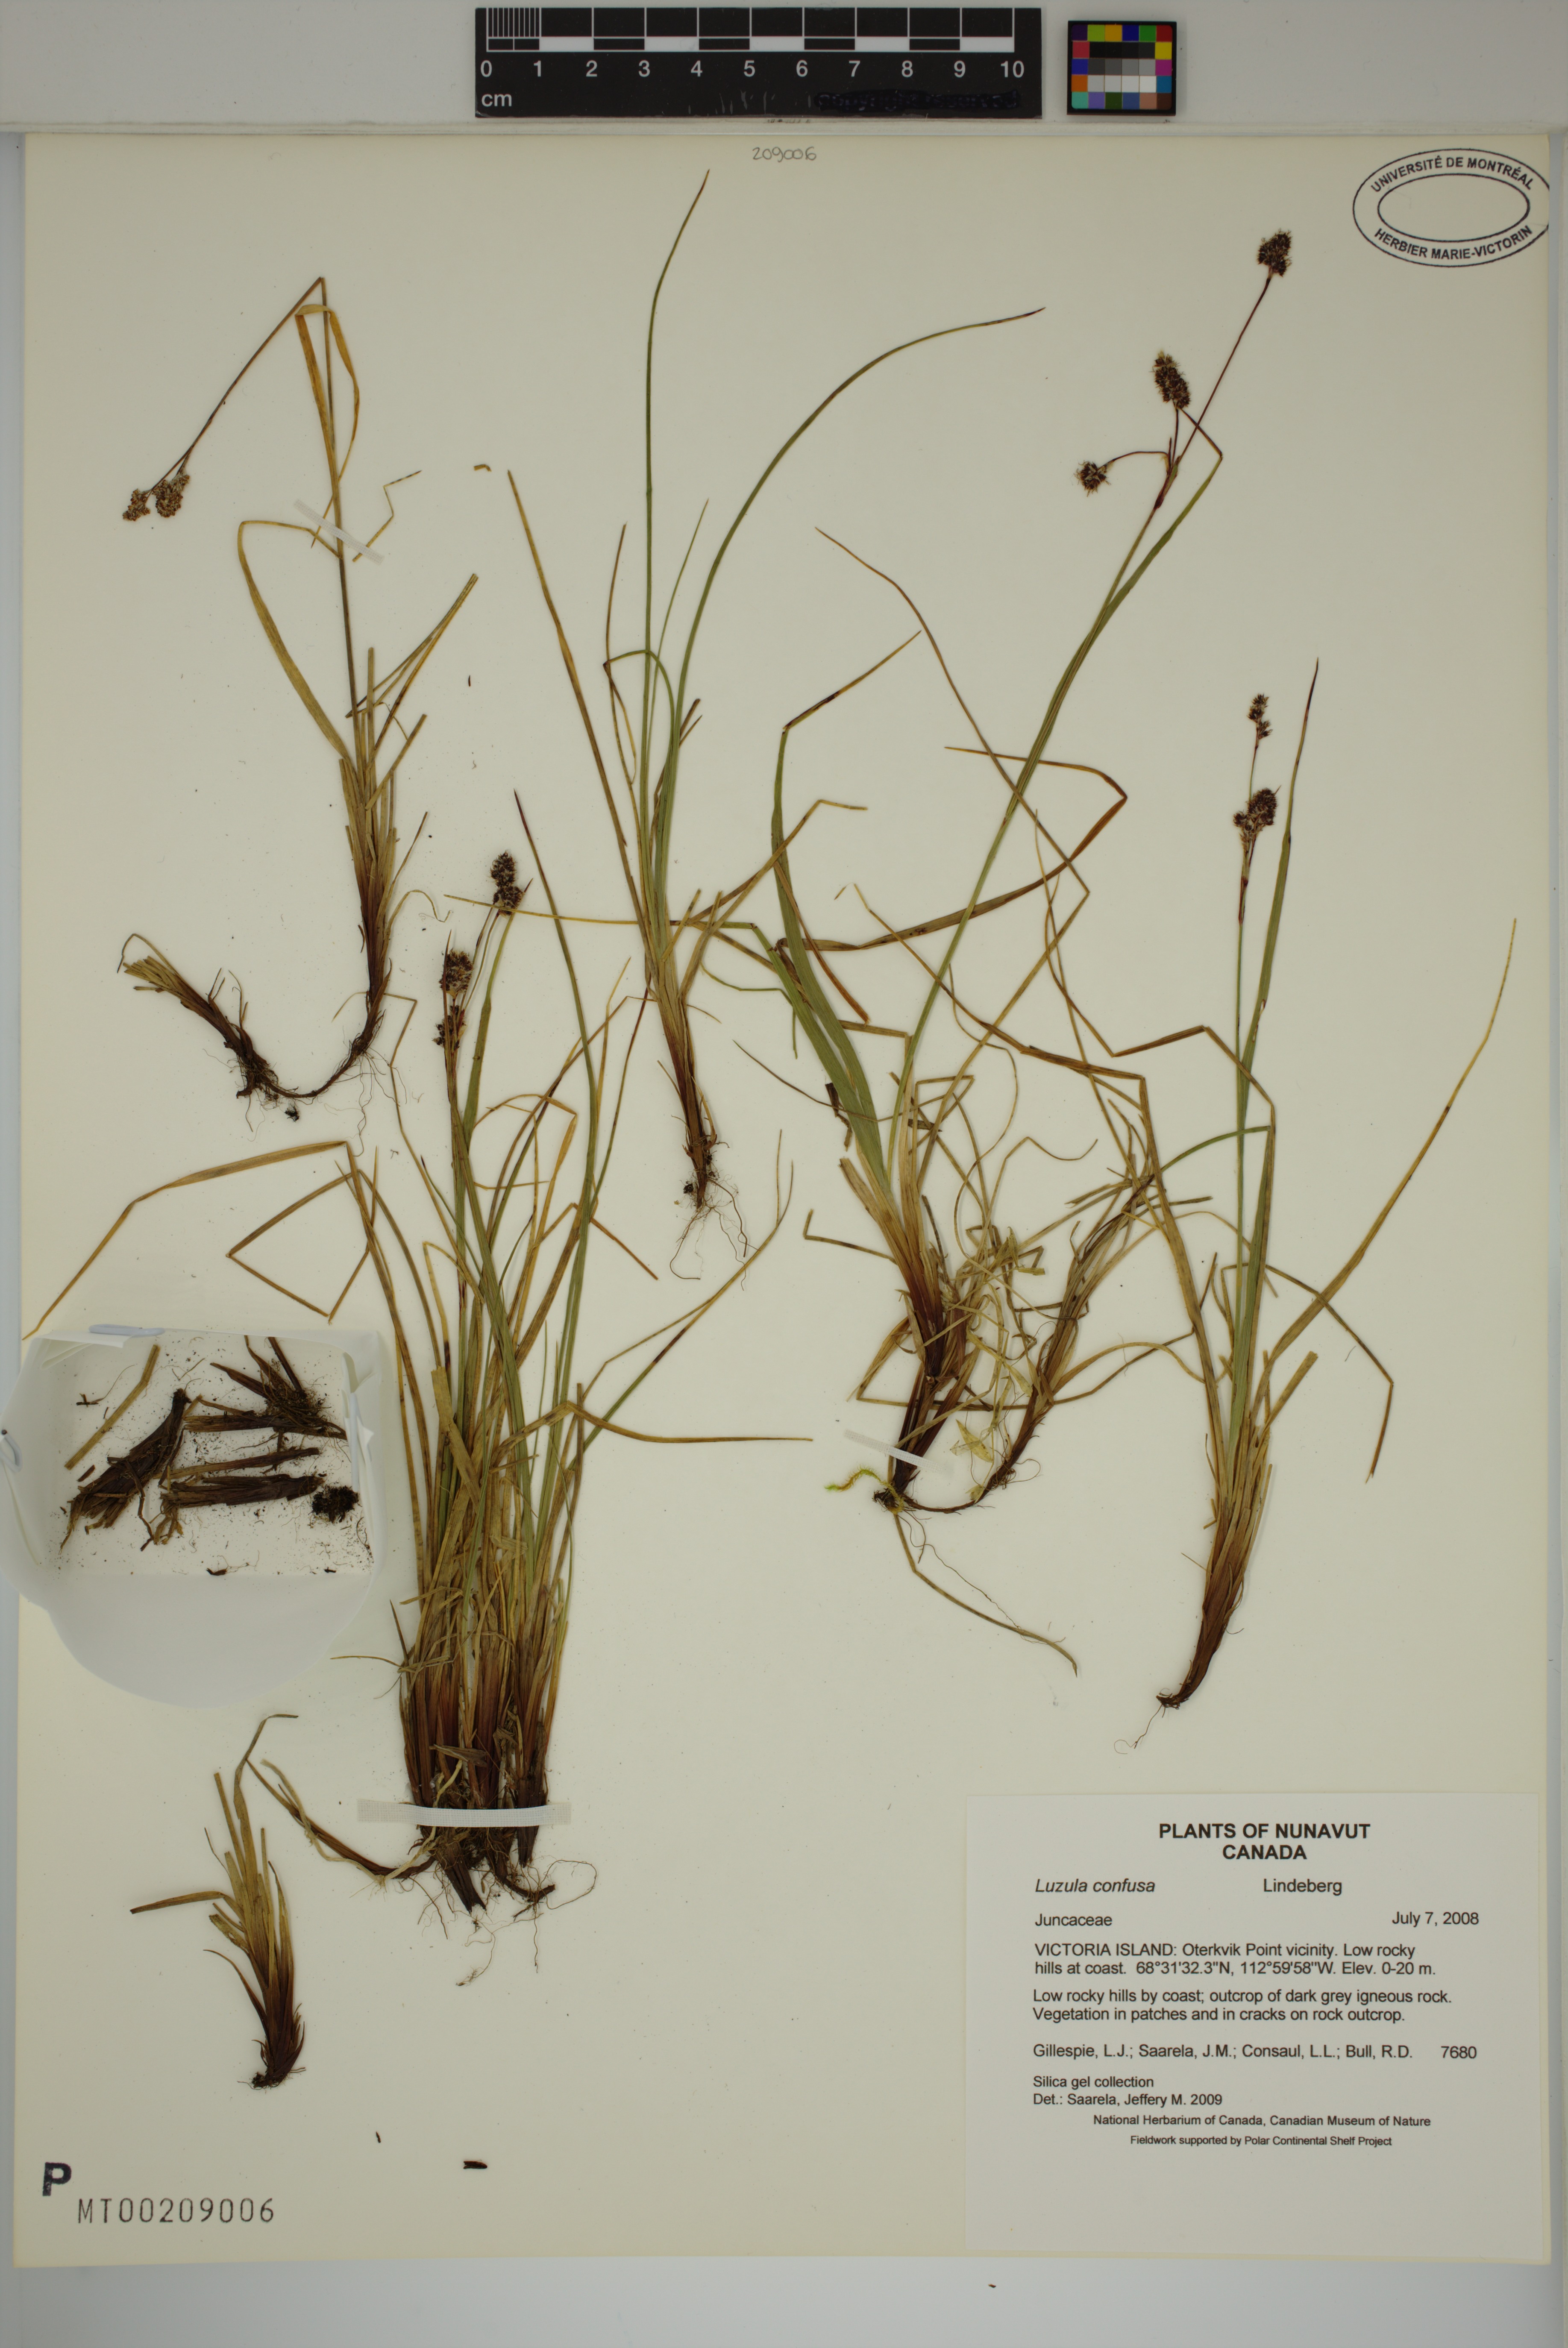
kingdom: Plantae
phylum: Tracheophyta
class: Liliopsida
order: Poales
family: Juncaceae
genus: Luzula
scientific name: Luzula confusa
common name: Northern wood rush
